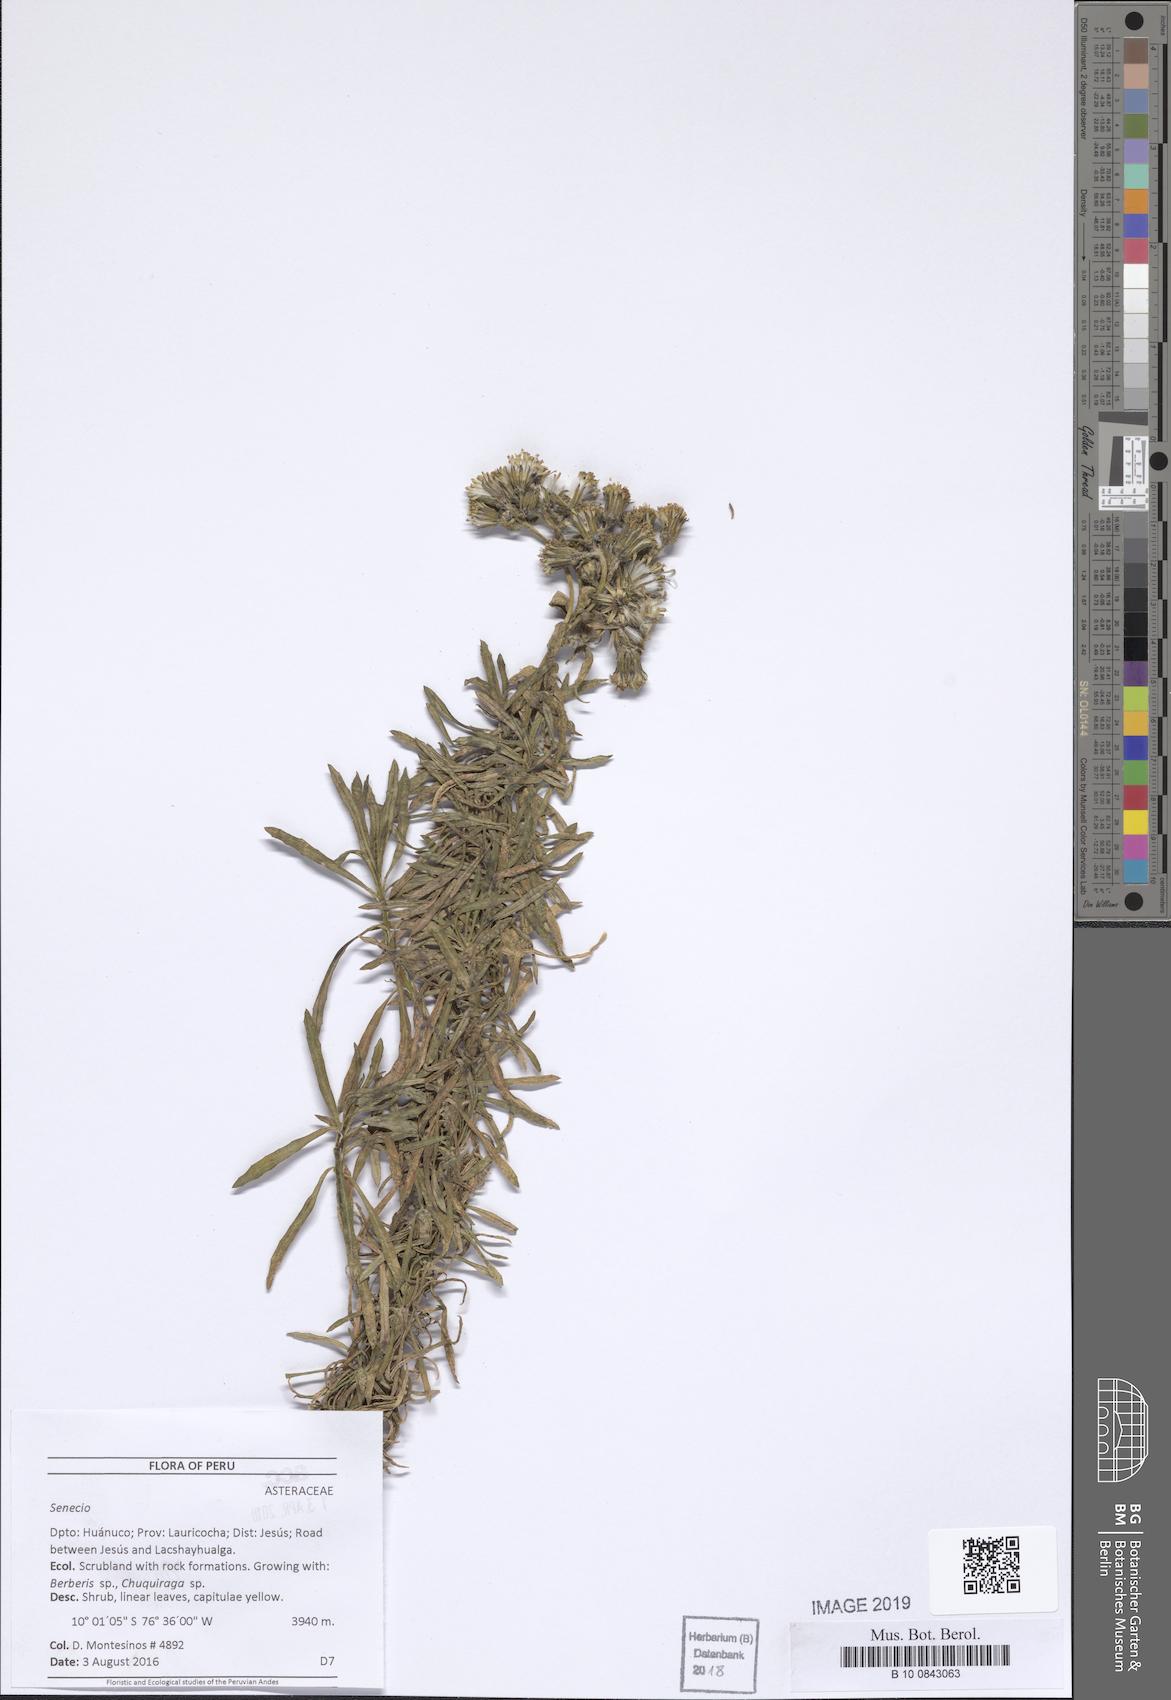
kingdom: Plantae
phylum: Tracheophyta
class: Magnoliopsida
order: Asterales
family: Asteraceae
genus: Aetheolaena
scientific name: Aetheolaena betonicifolia
